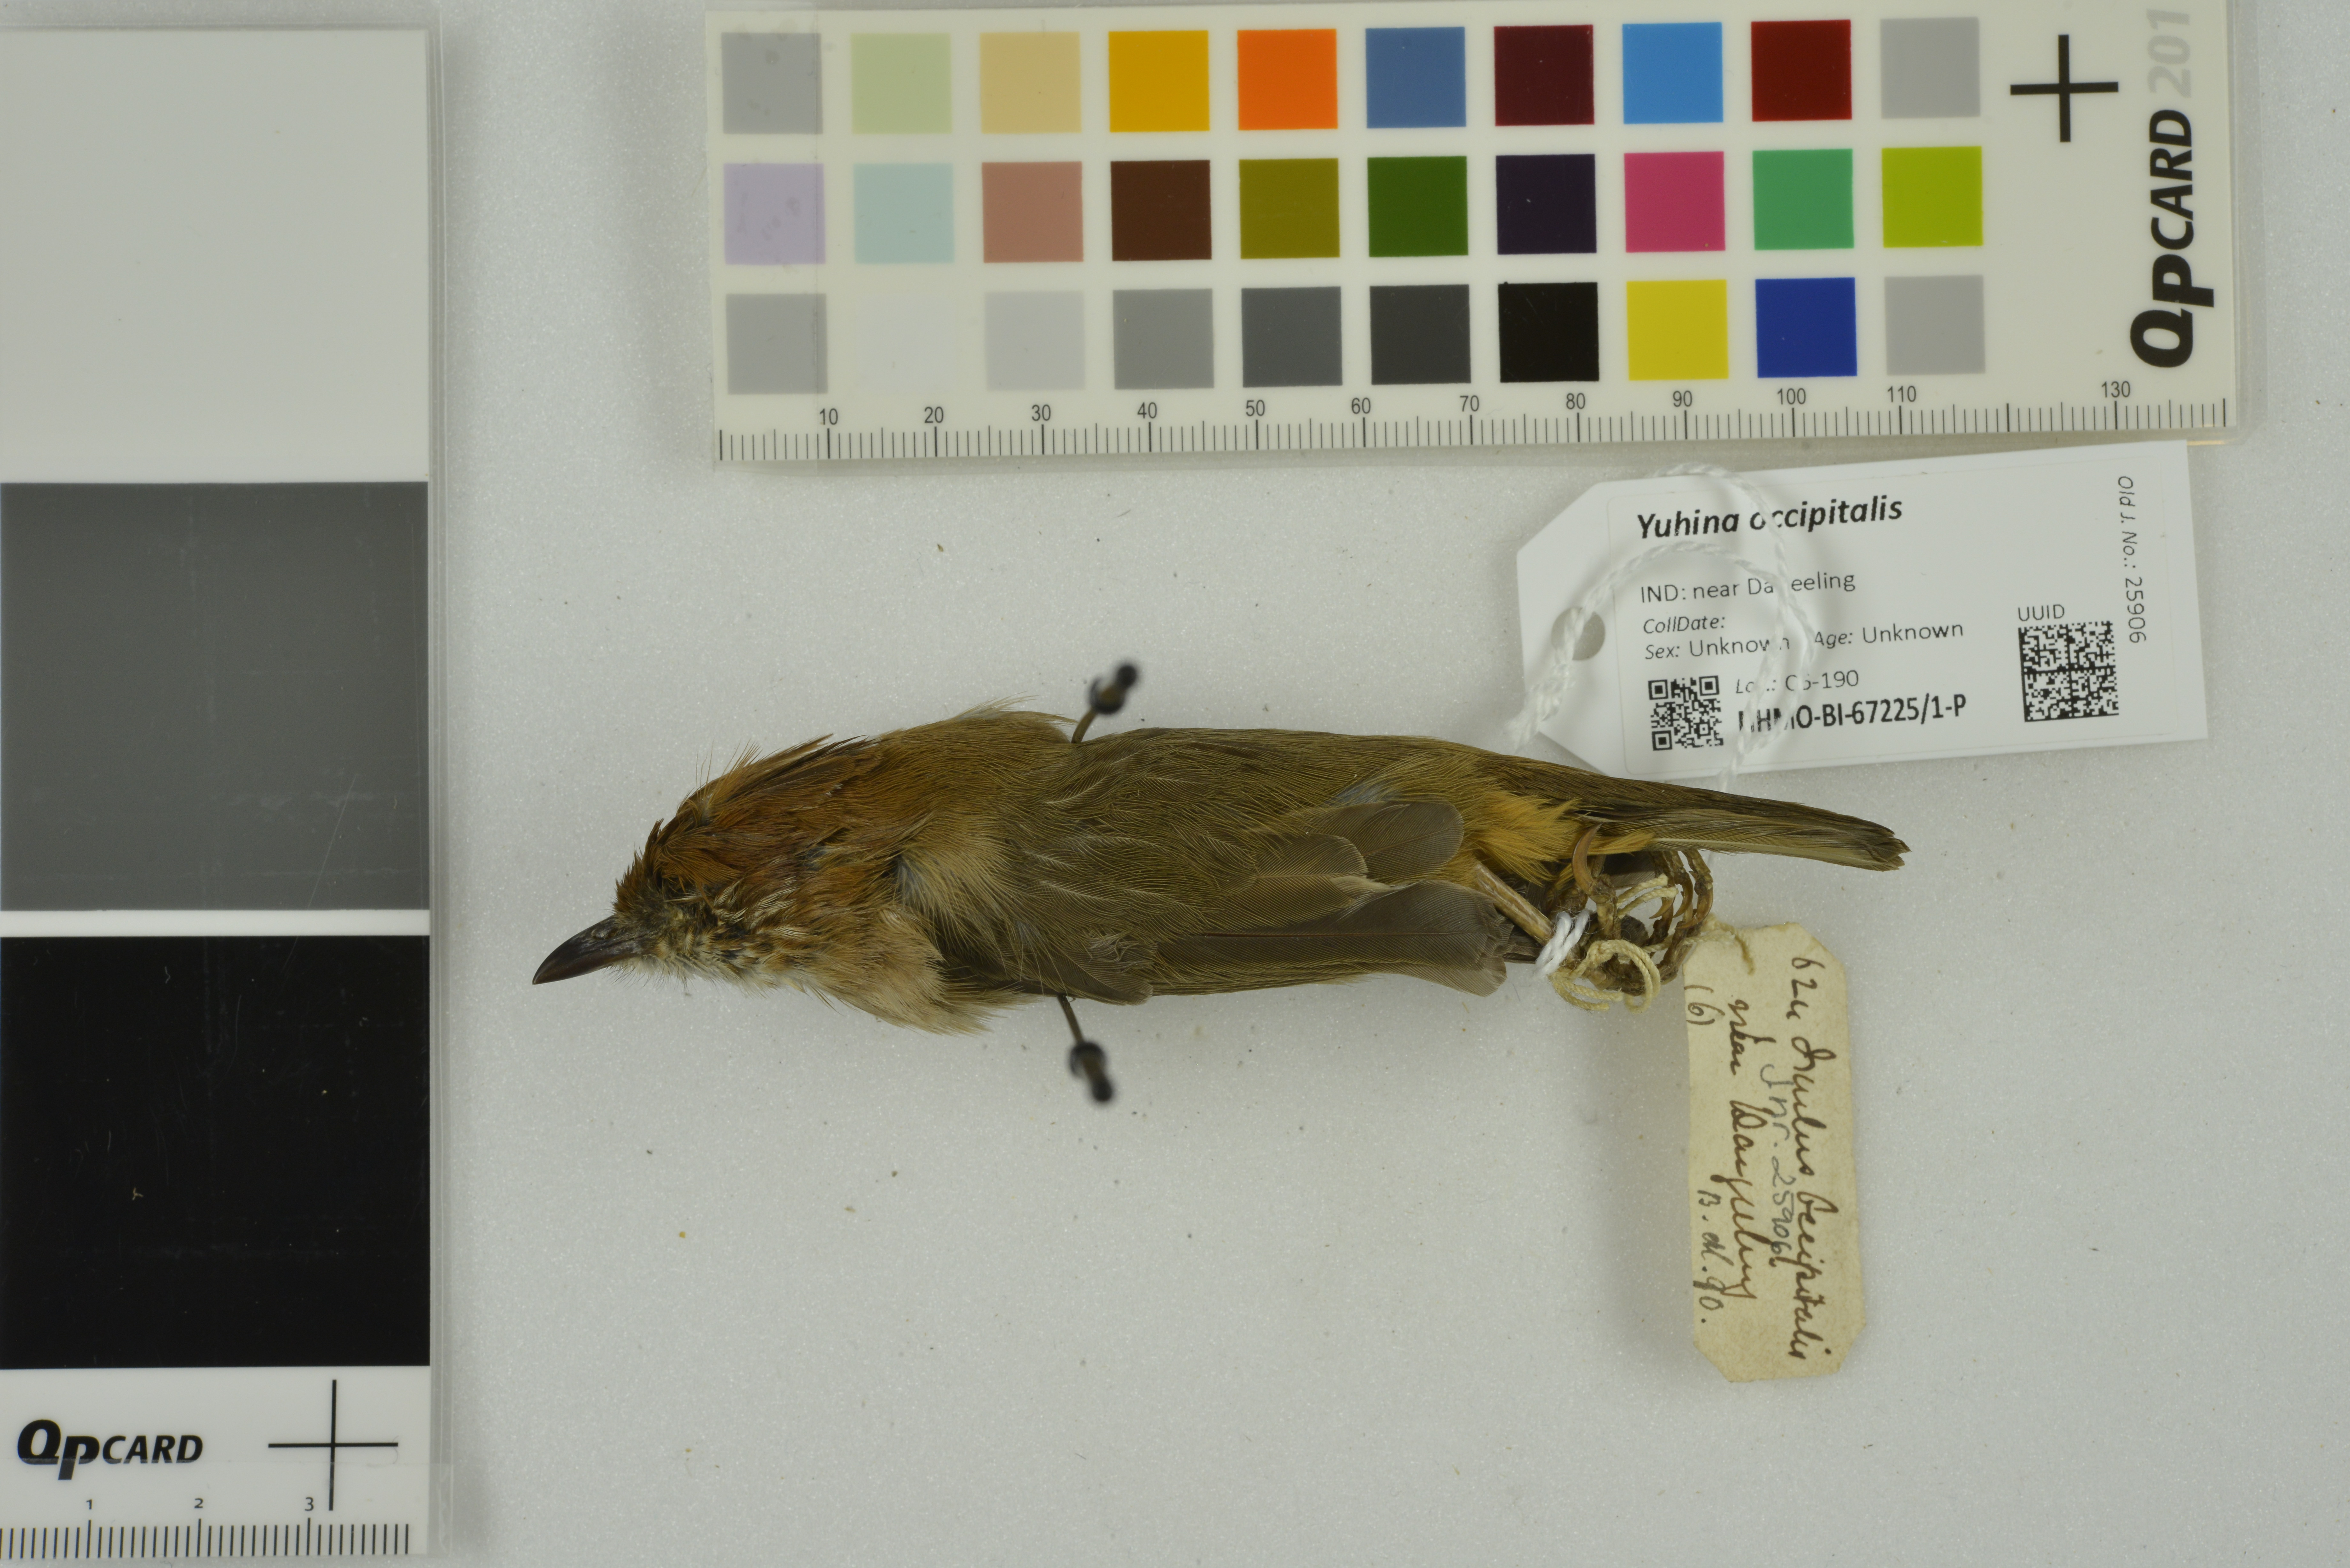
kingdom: Animalia
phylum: Chordata
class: Aves
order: Passeriformes
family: Zosteropidae
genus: Yuhina
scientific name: Yuhina occipitalis
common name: Rufous-vented yuhina
